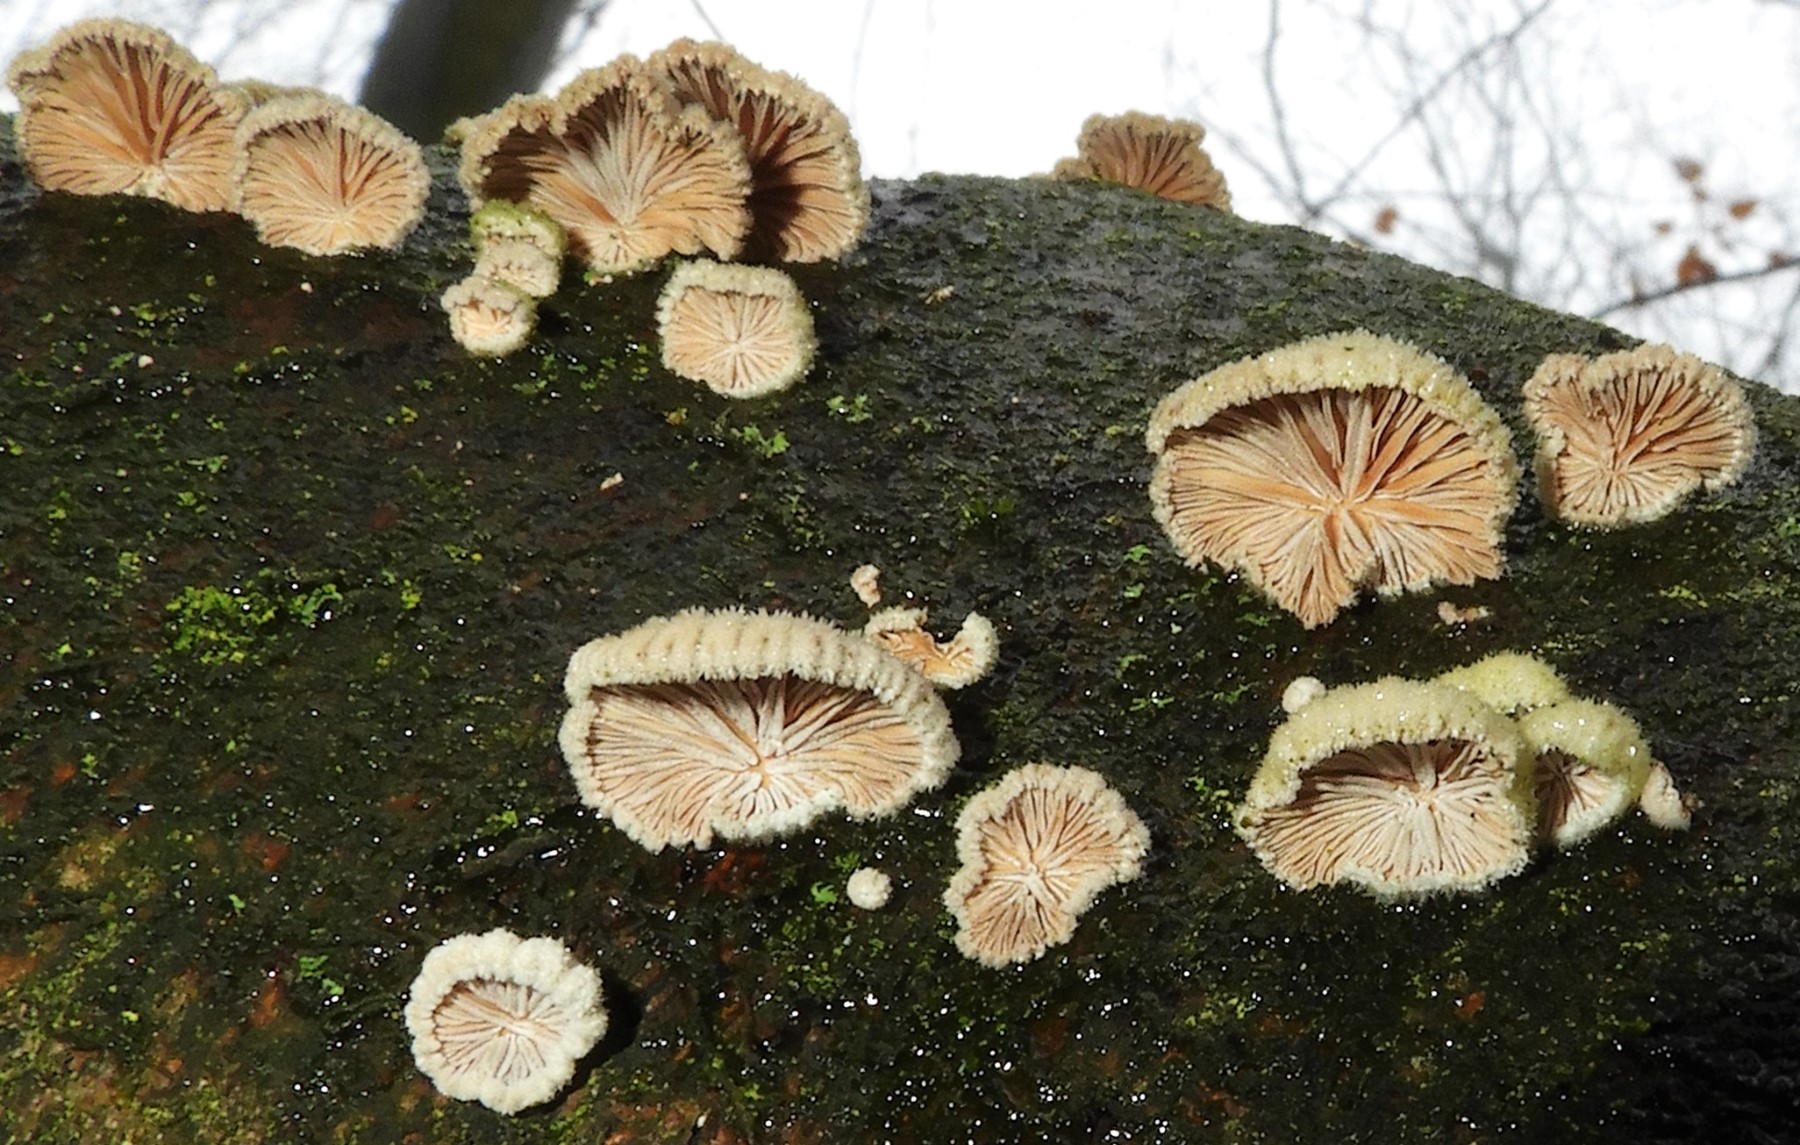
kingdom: Fungi
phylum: Basidiomycota
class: Agaricomycetes
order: Agaricales
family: Schizophyllaceae
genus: Schizophyllum
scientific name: Schizophyllum commune
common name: kløvblad
